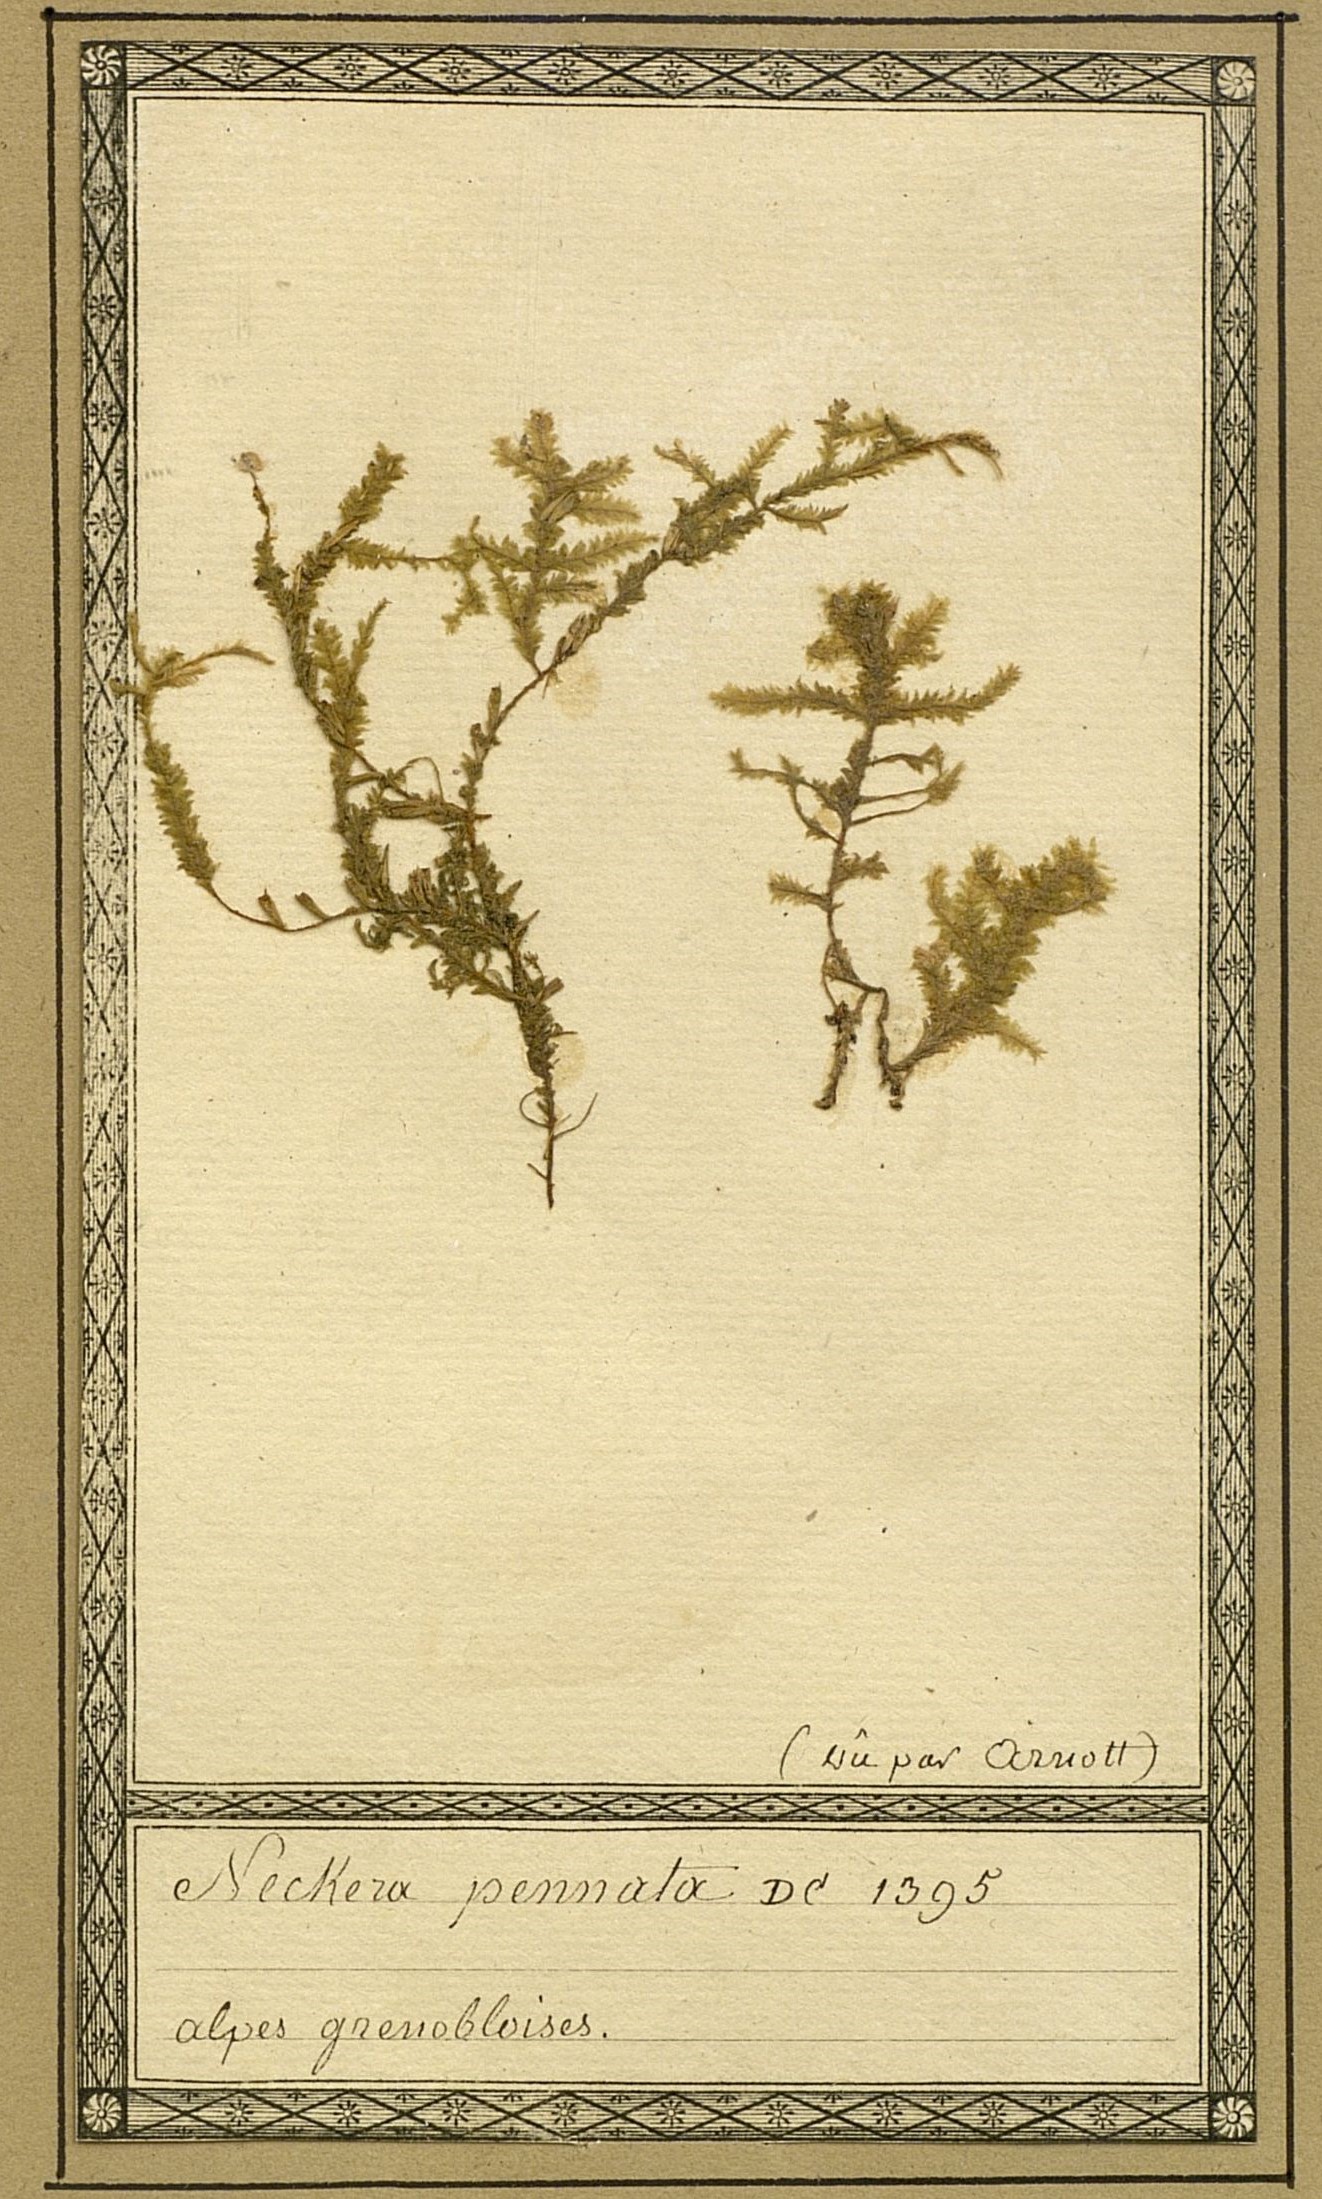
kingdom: Plantae
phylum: Bryophyta
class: Bryopsida
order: Hypnales
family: Neckeraceae
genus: Neckera
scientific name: Neckera pennata
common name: Feathery neckera
